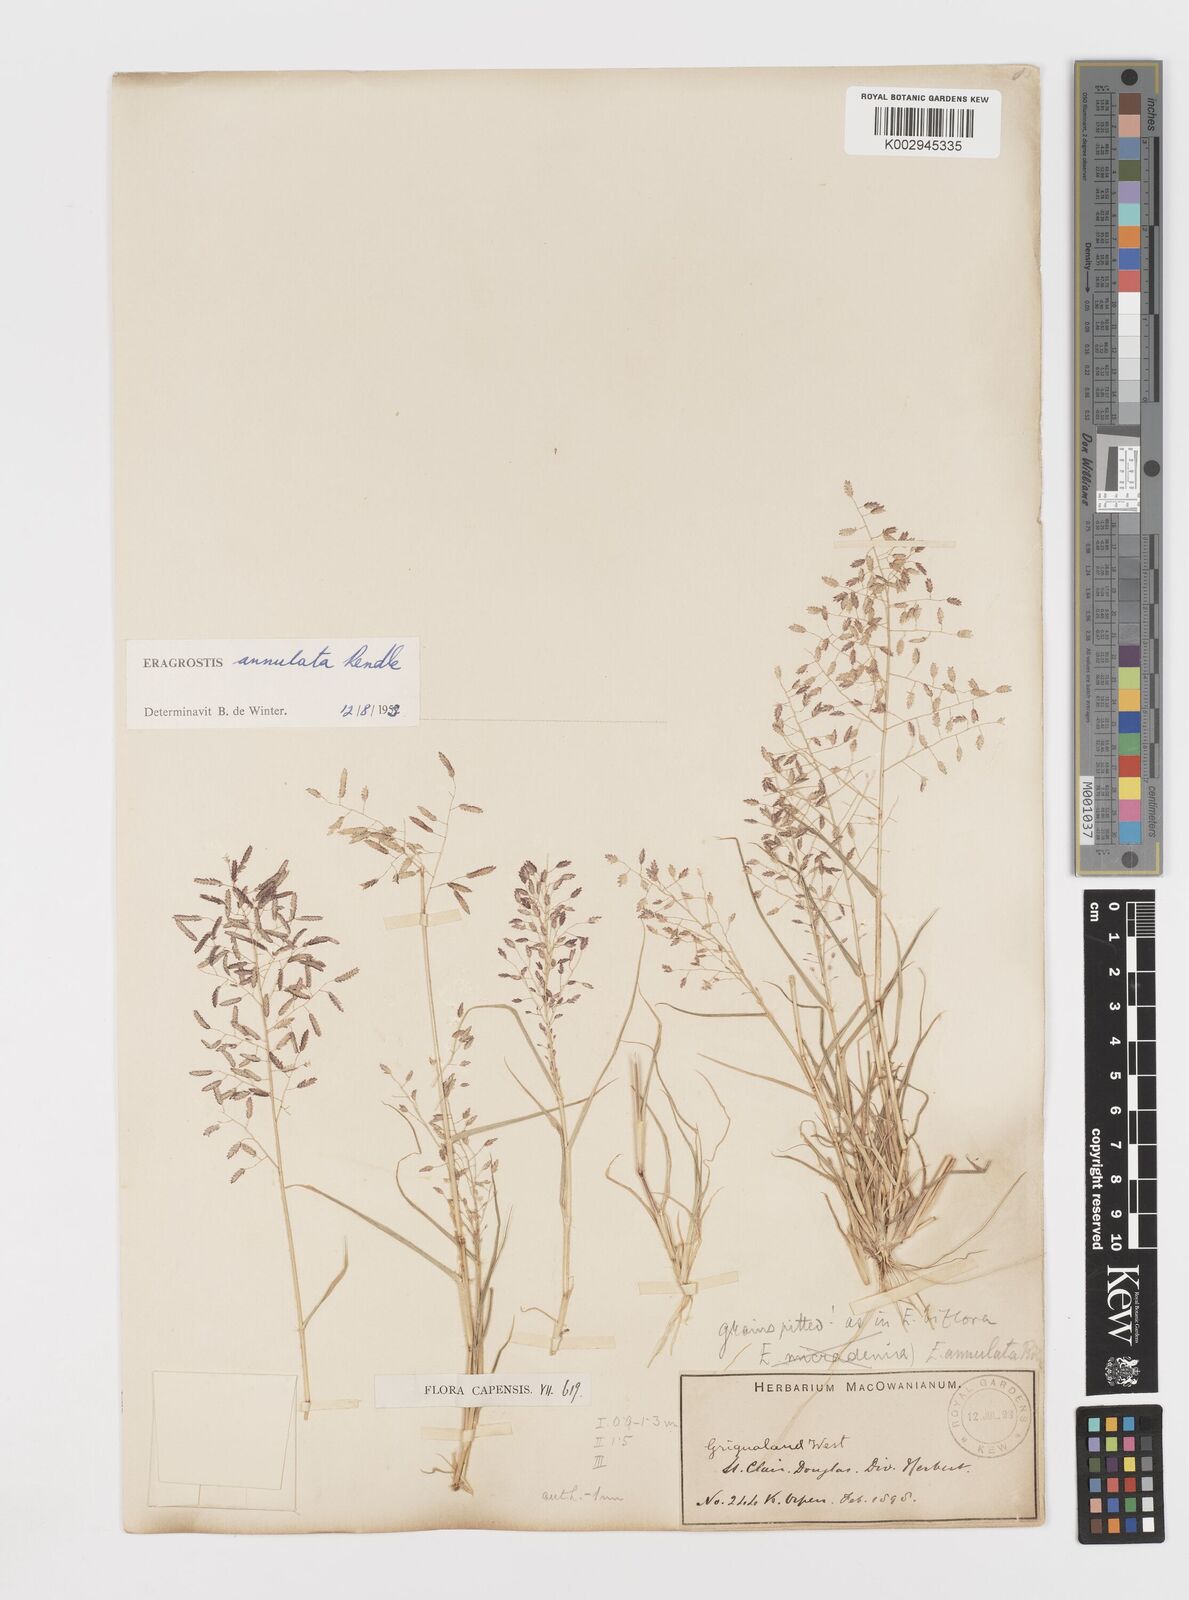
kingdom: Plantae
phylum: Tracheophyta
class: Liliopsida
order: Poales
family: Poaceae
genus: Eragrostis
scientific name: Eragrostis annulata
